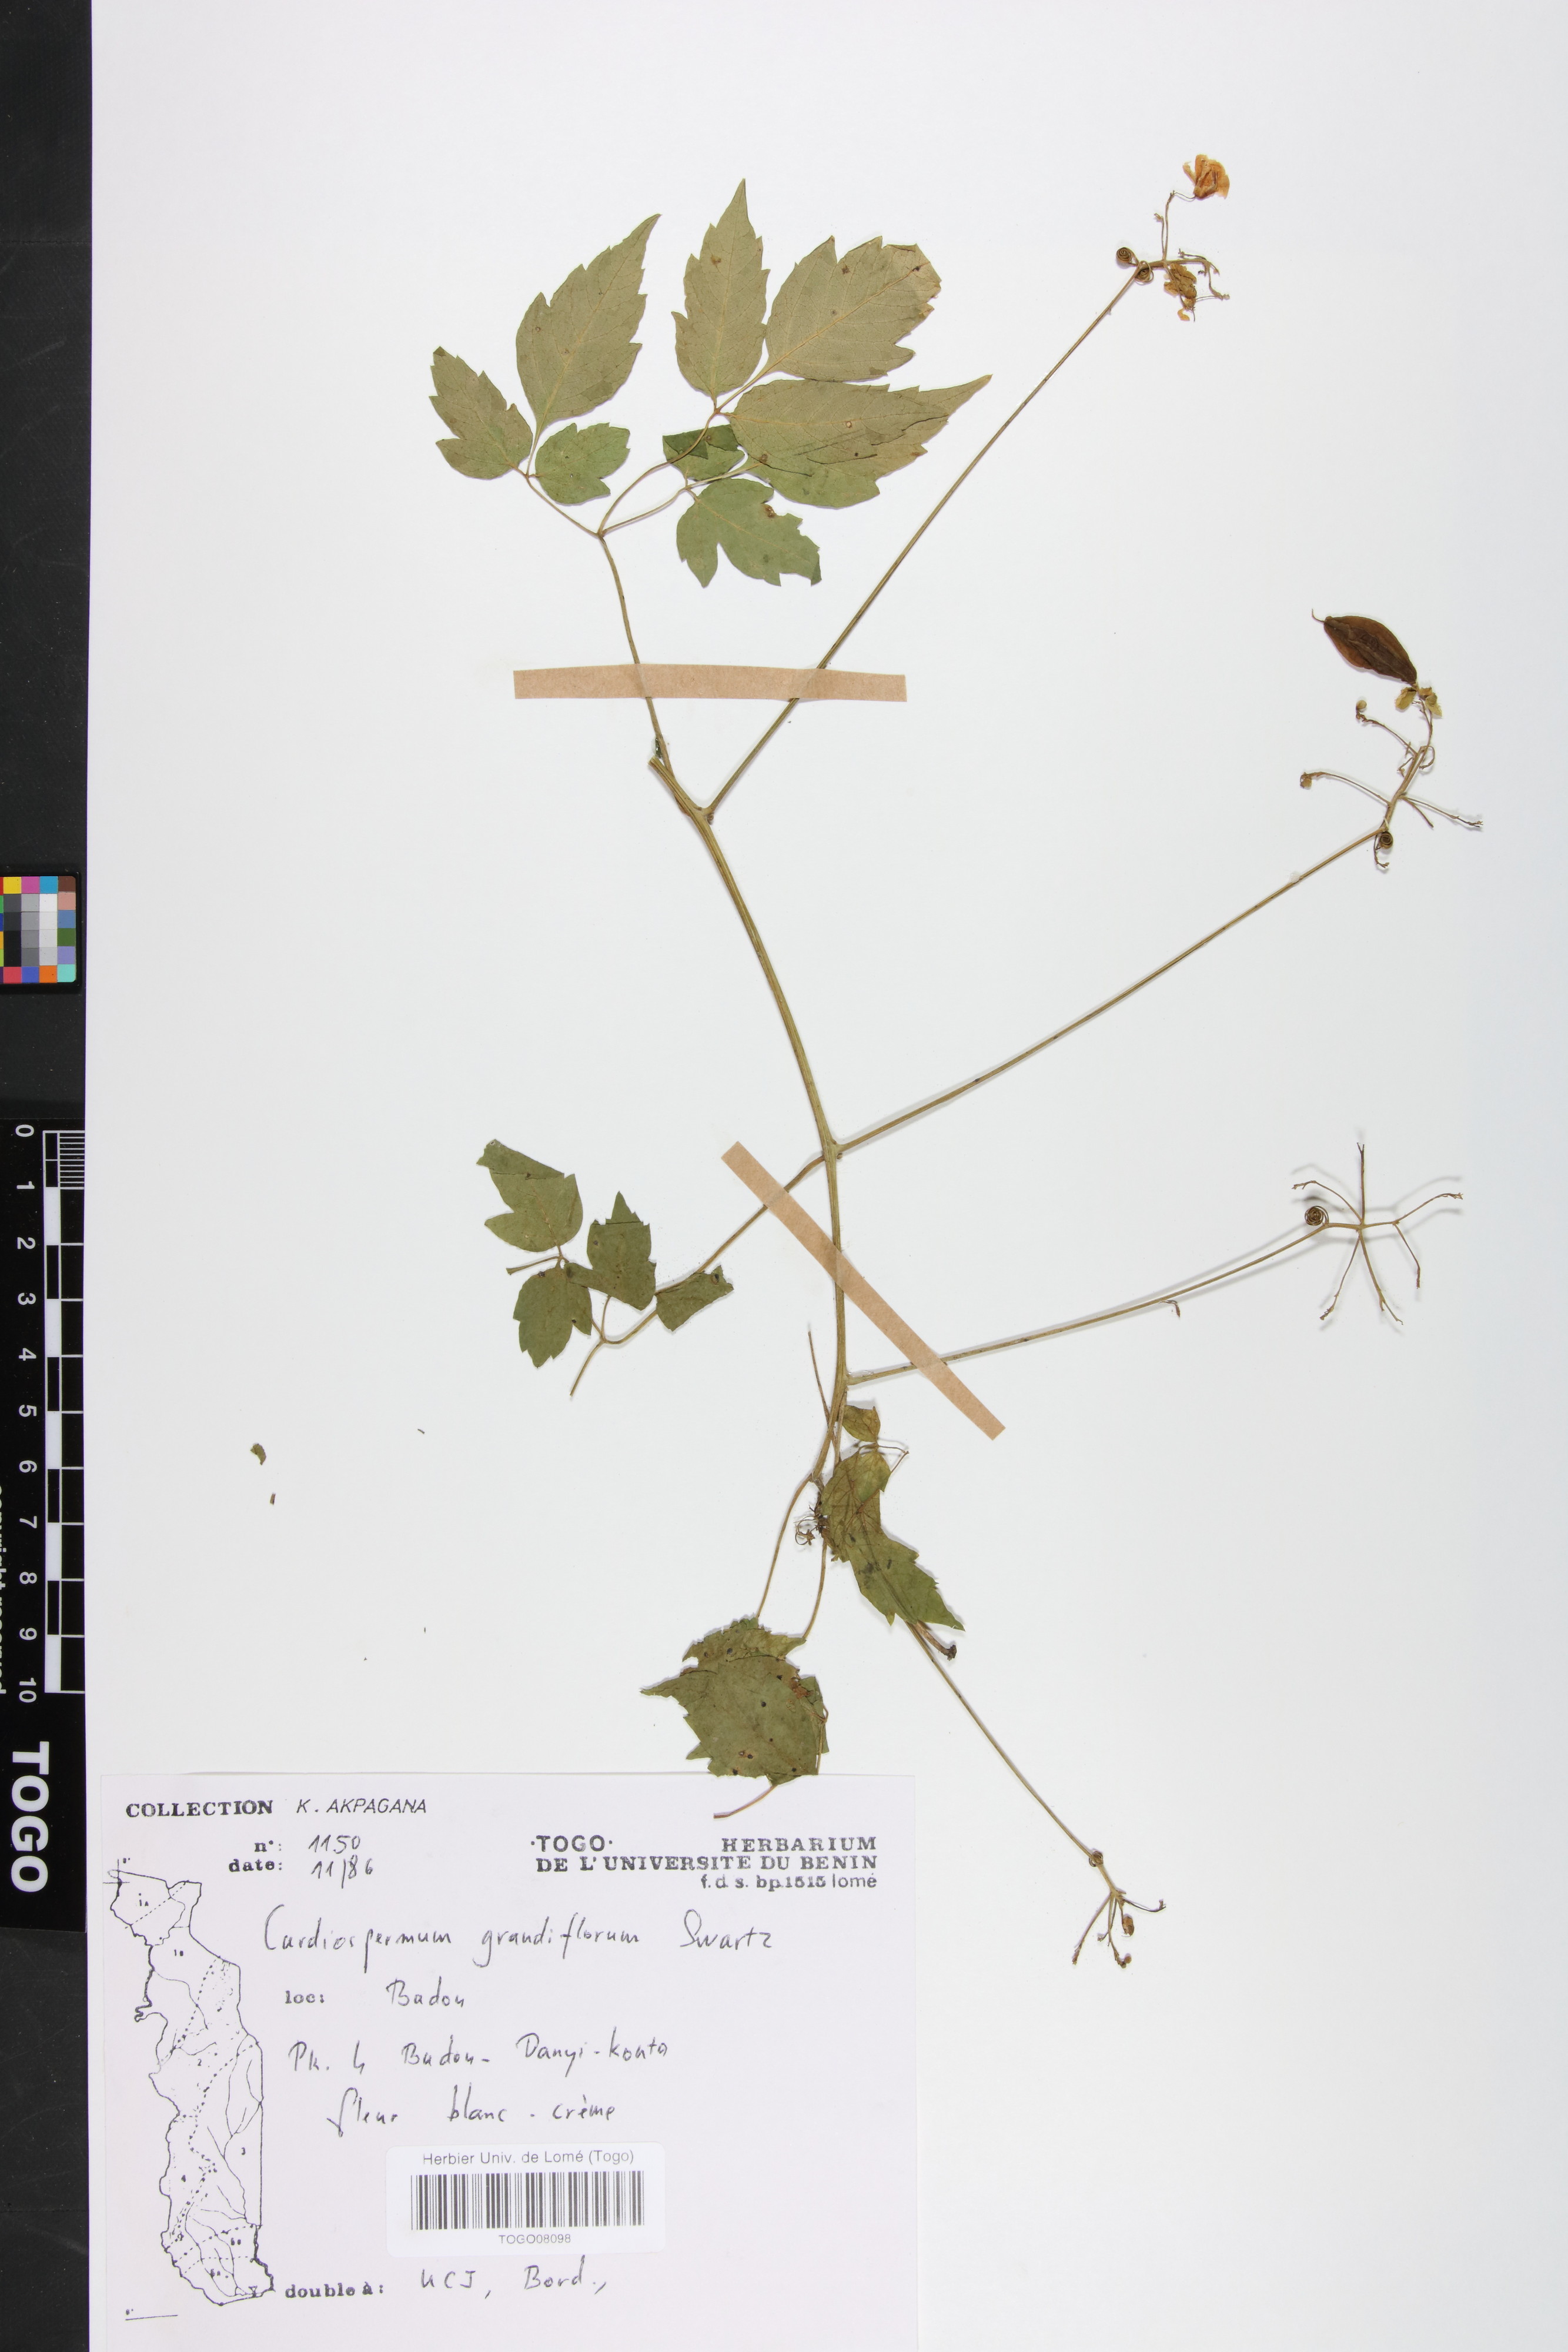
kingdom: Plantae
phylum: Tracheophyta
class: Magnoliopsida
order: Sapindales
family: Sapindaceae
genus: Cardiospermum
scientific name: Cardiospermum grandiflorum
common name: Balloon vine
